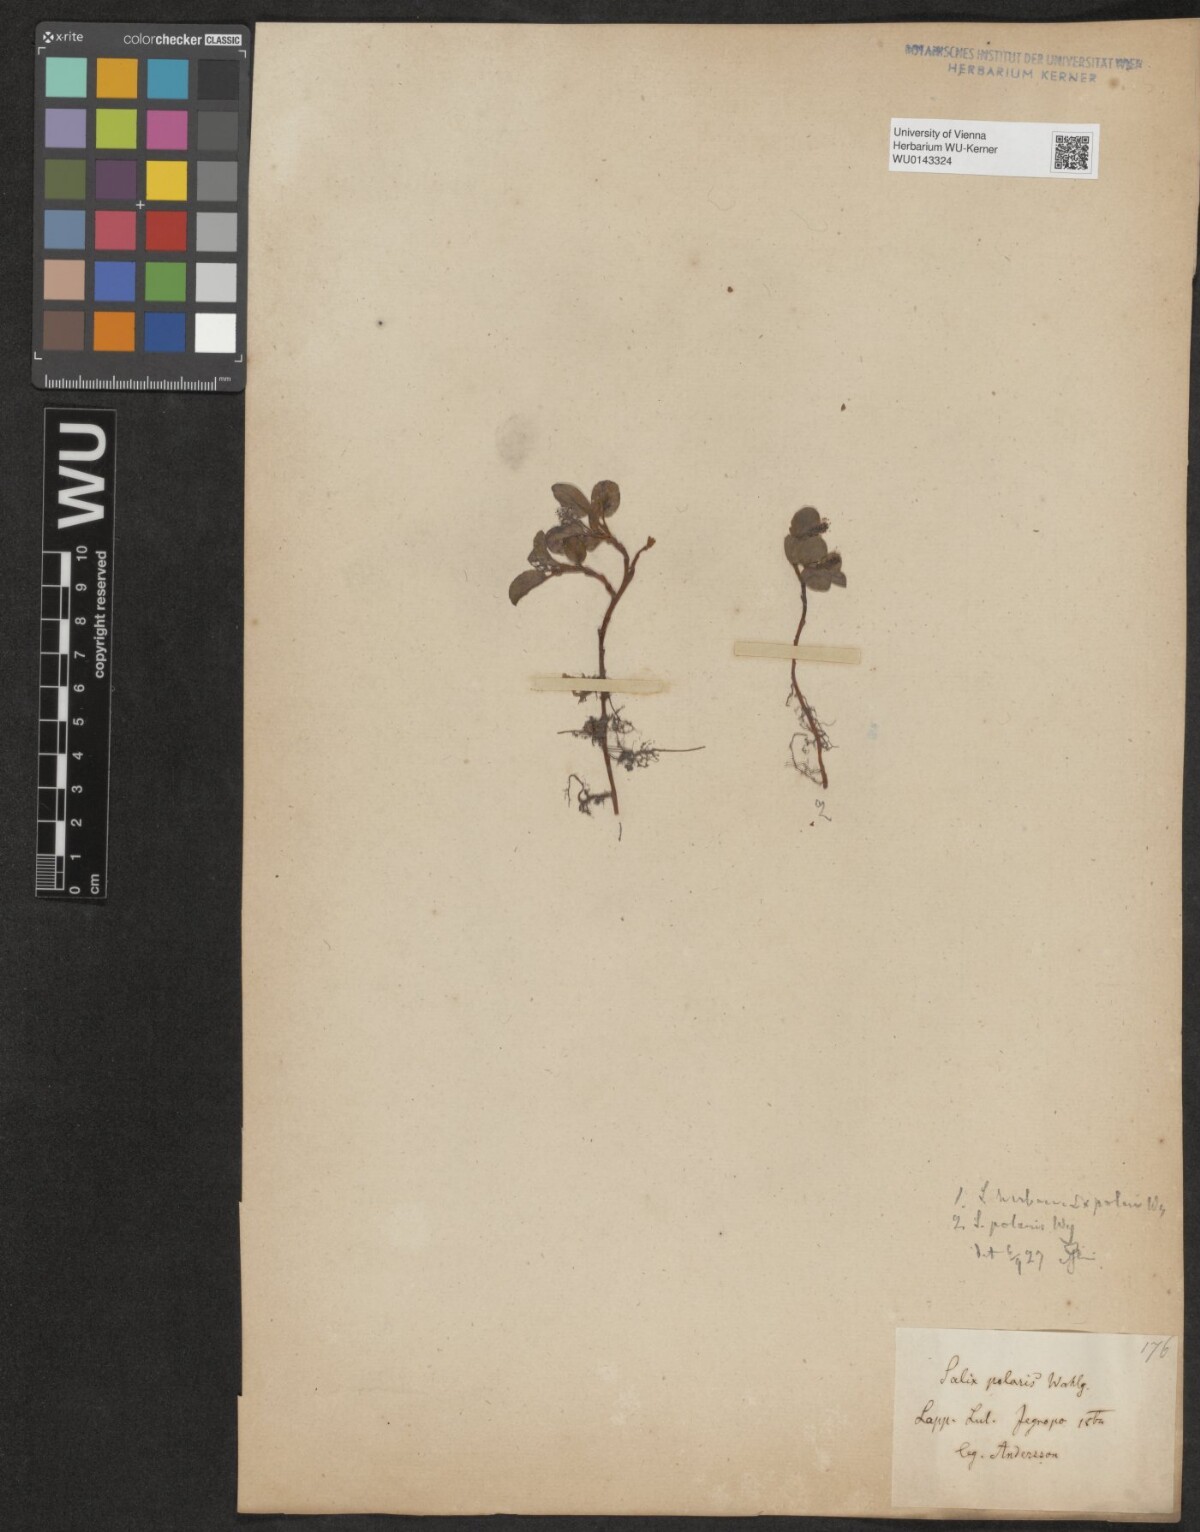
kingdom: Plantae
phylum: Tracheophyta
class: Magnoliopsida
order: Malpighiales
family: Salicaceae
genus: Salix
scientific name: Salix polaris
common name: Polar willow
